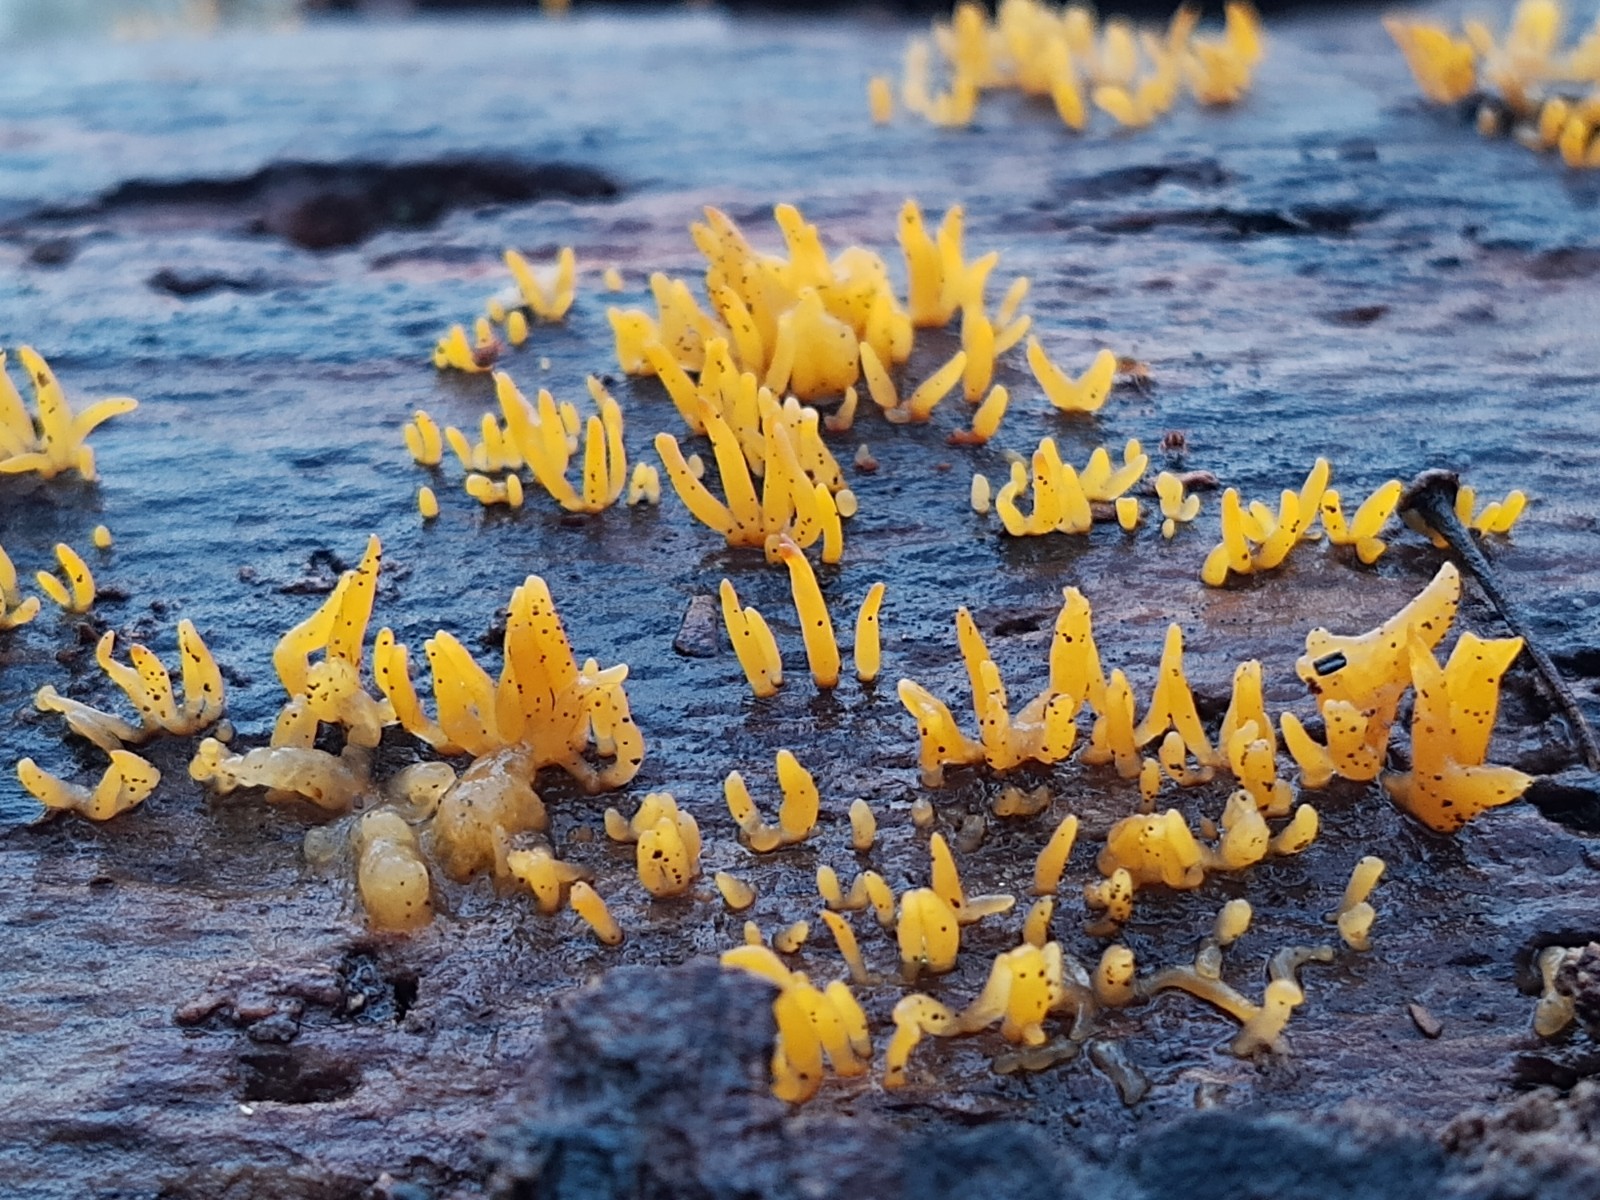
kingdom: Fungi
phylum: Basidiomycota
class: Dacrymycetes
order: Dacrymycetales
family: Dacrymycetaceae
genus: Calocera
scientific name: Calocera cornea
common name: liden guldgaffel
